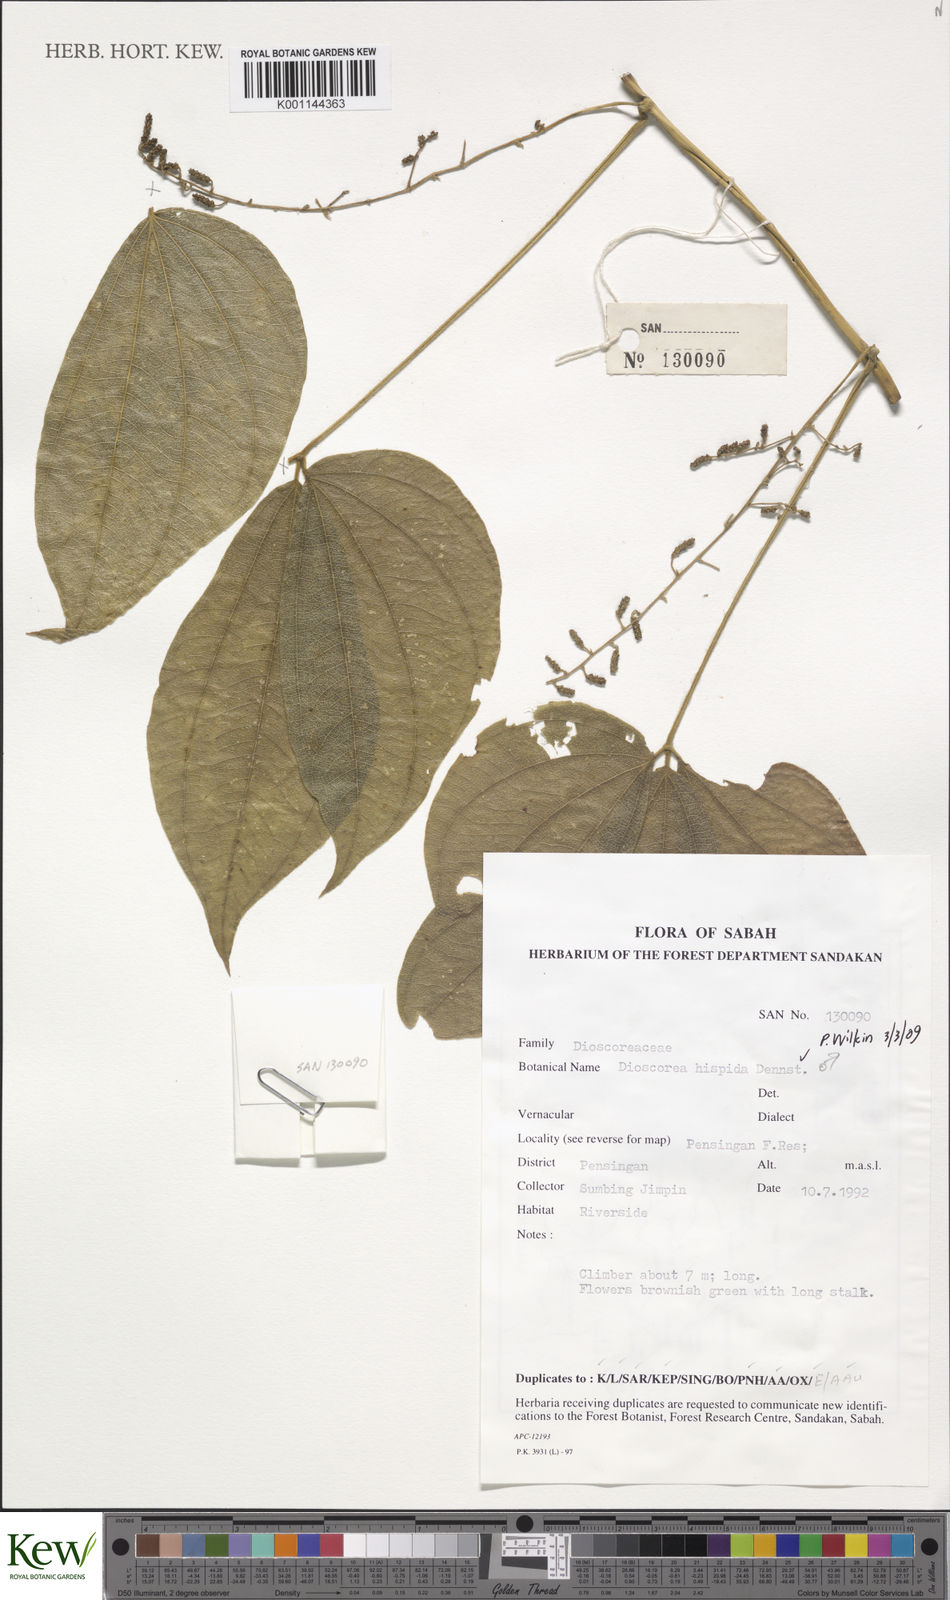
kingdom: Plantae
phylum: Tracheophyta
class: Liliopsida
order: Dioscoreales
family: Dioscoreaceae
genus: Dioscorea
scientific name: Dioscorea hispida
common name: Asiatic bitter yam
